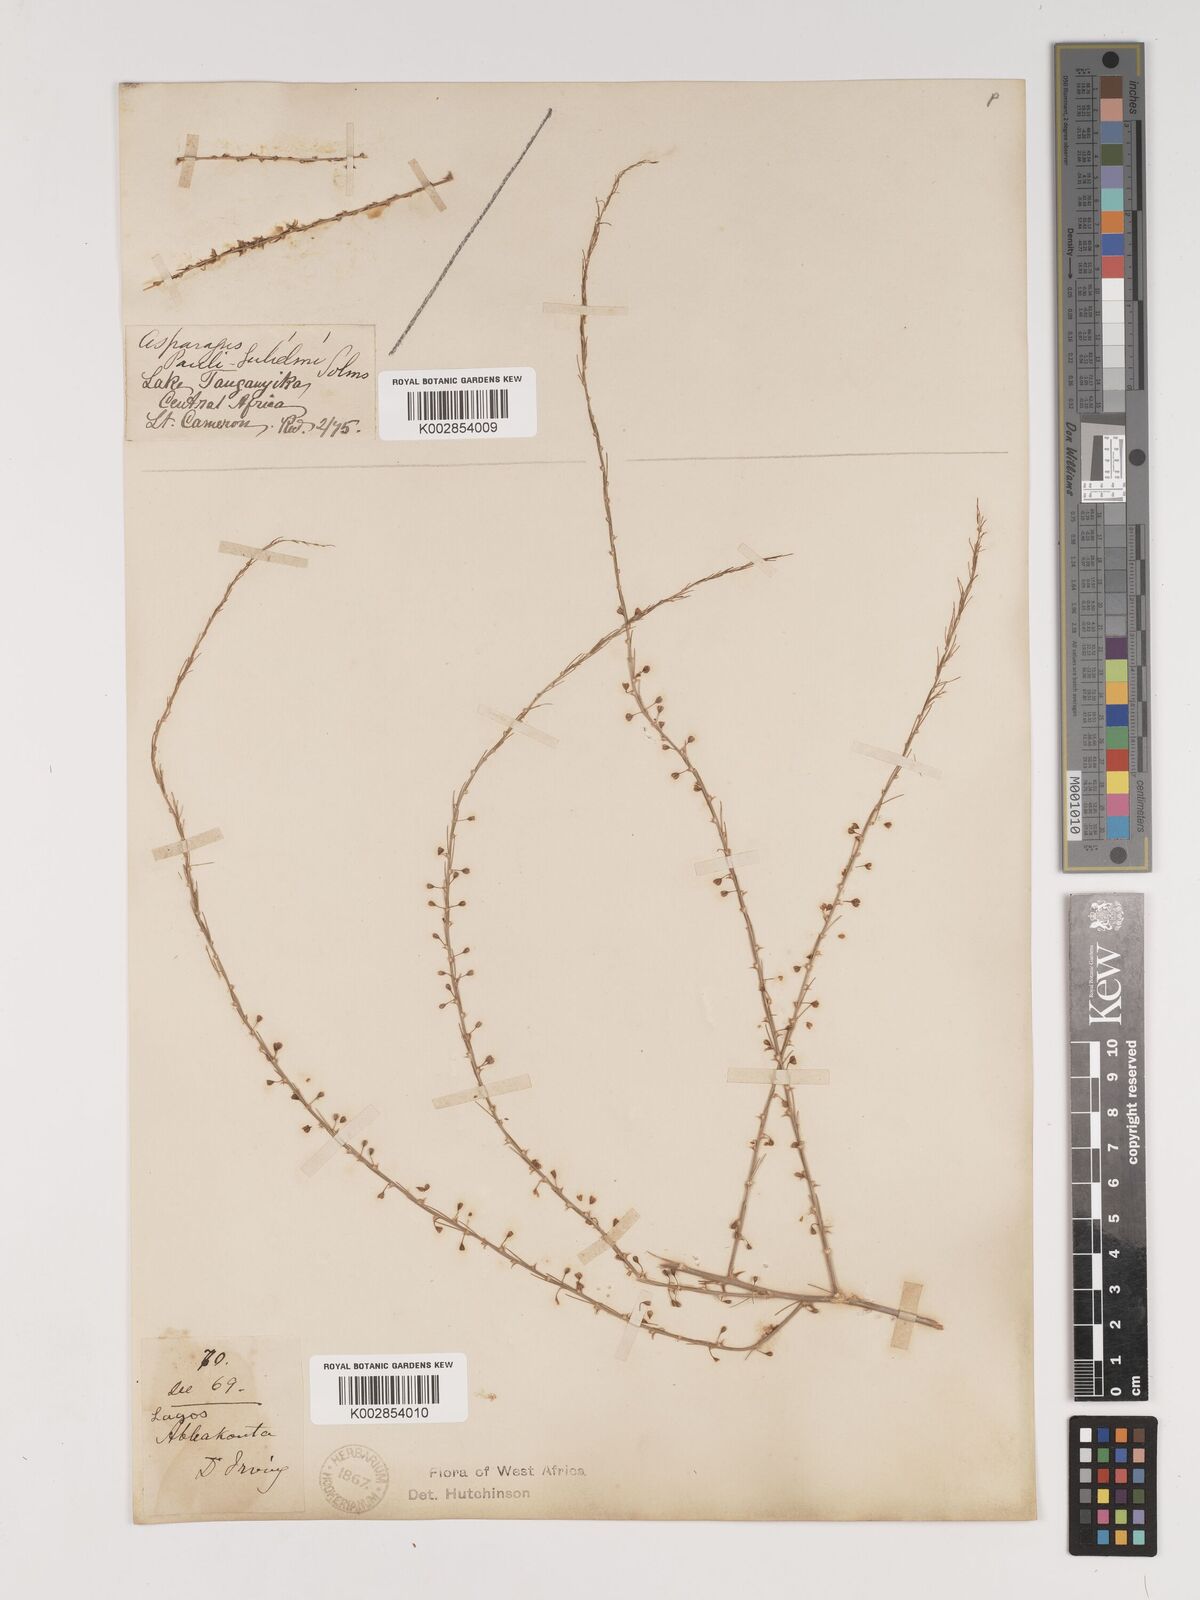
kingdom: Plantae
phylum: Tracheophyta
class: Liliopsida
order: Asparagales
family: Asparagaceae
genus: Asparagus
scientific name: Asparagus flagellaris
